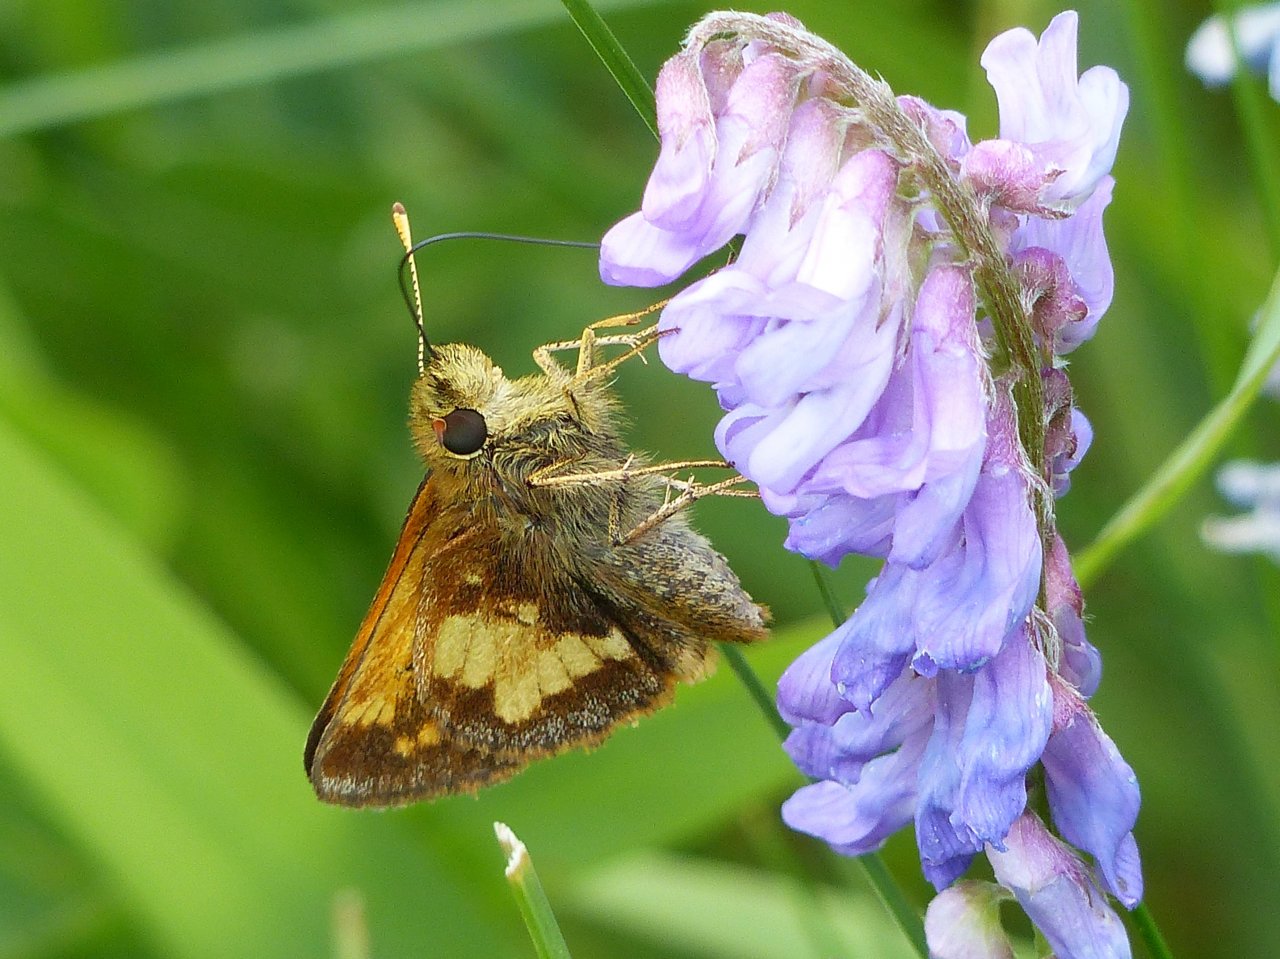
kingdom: Animalia
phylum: Arthropoda
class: Insecta
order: Lepidoptera
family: Hesperiidae
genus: Lon
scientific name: Lon hobomok
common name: Hobomok Skipper
